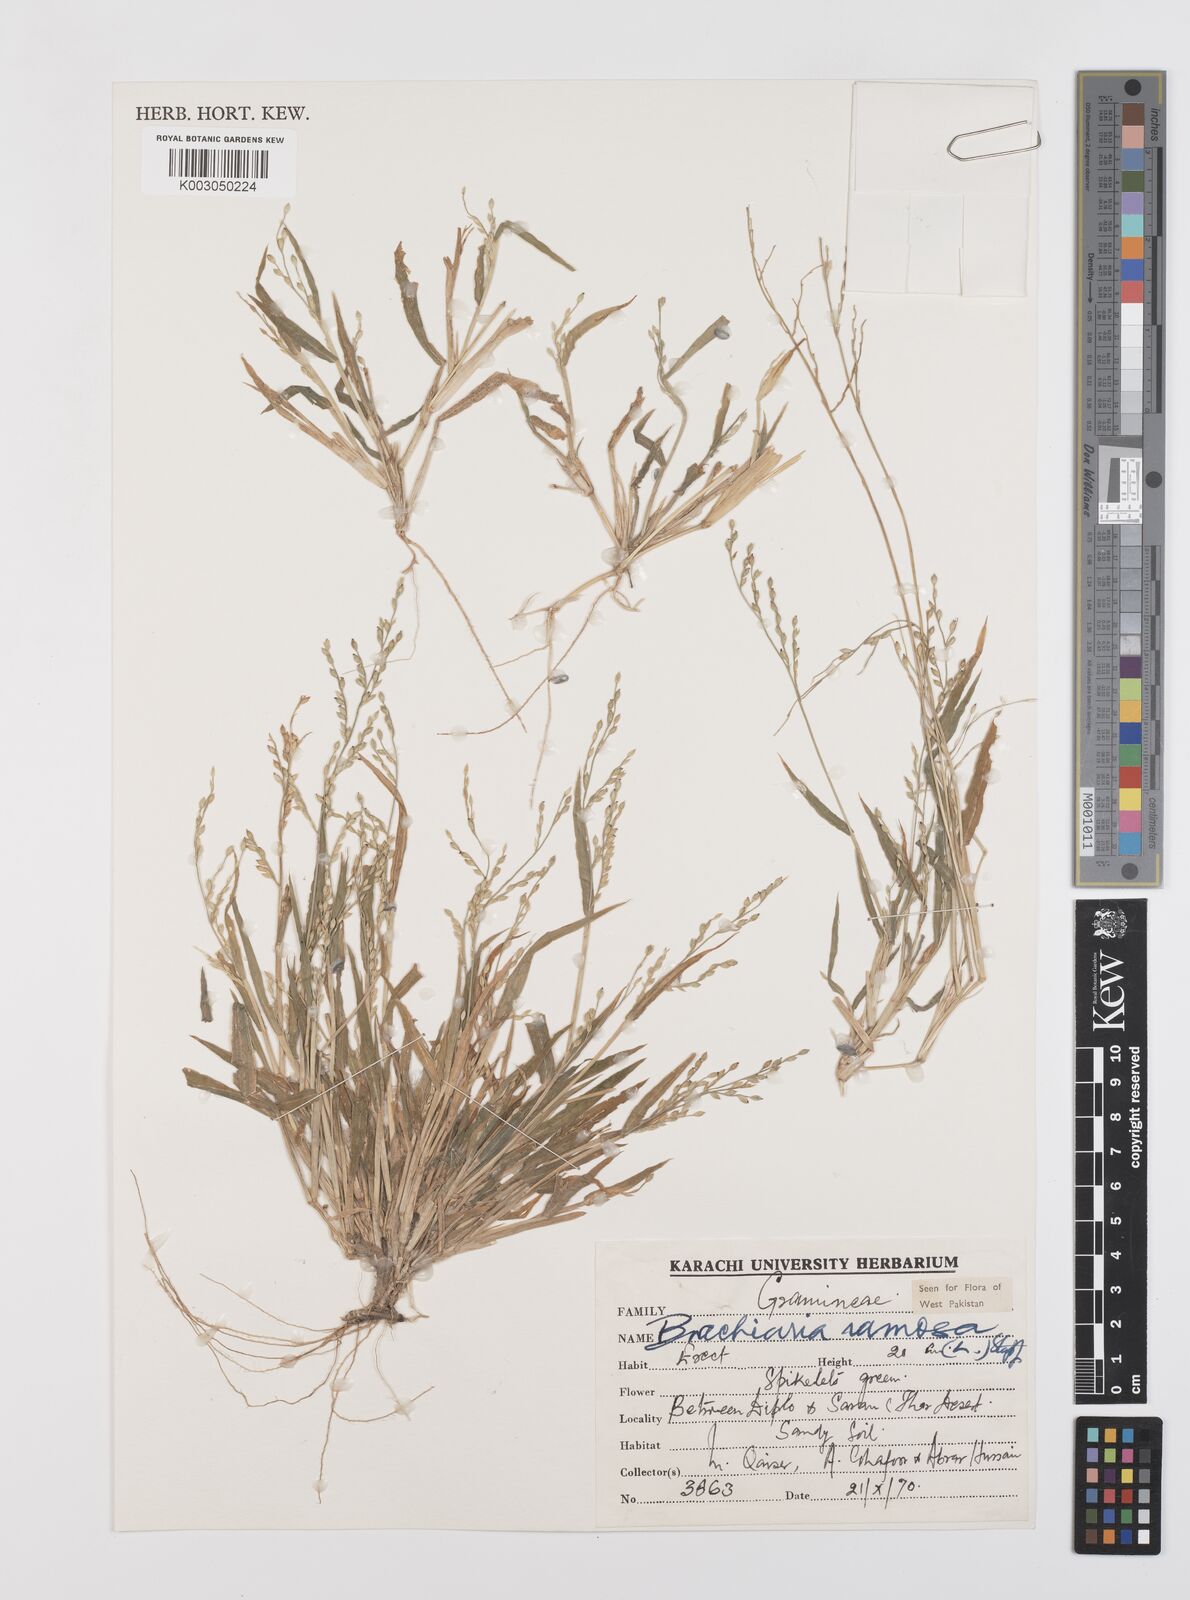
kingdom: Plantae
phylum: Tracheophyta
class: Liliopsida
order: Poales
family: Poaceae
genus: Urochloa
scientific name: Urochloa ramosa
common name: Browntop millet
